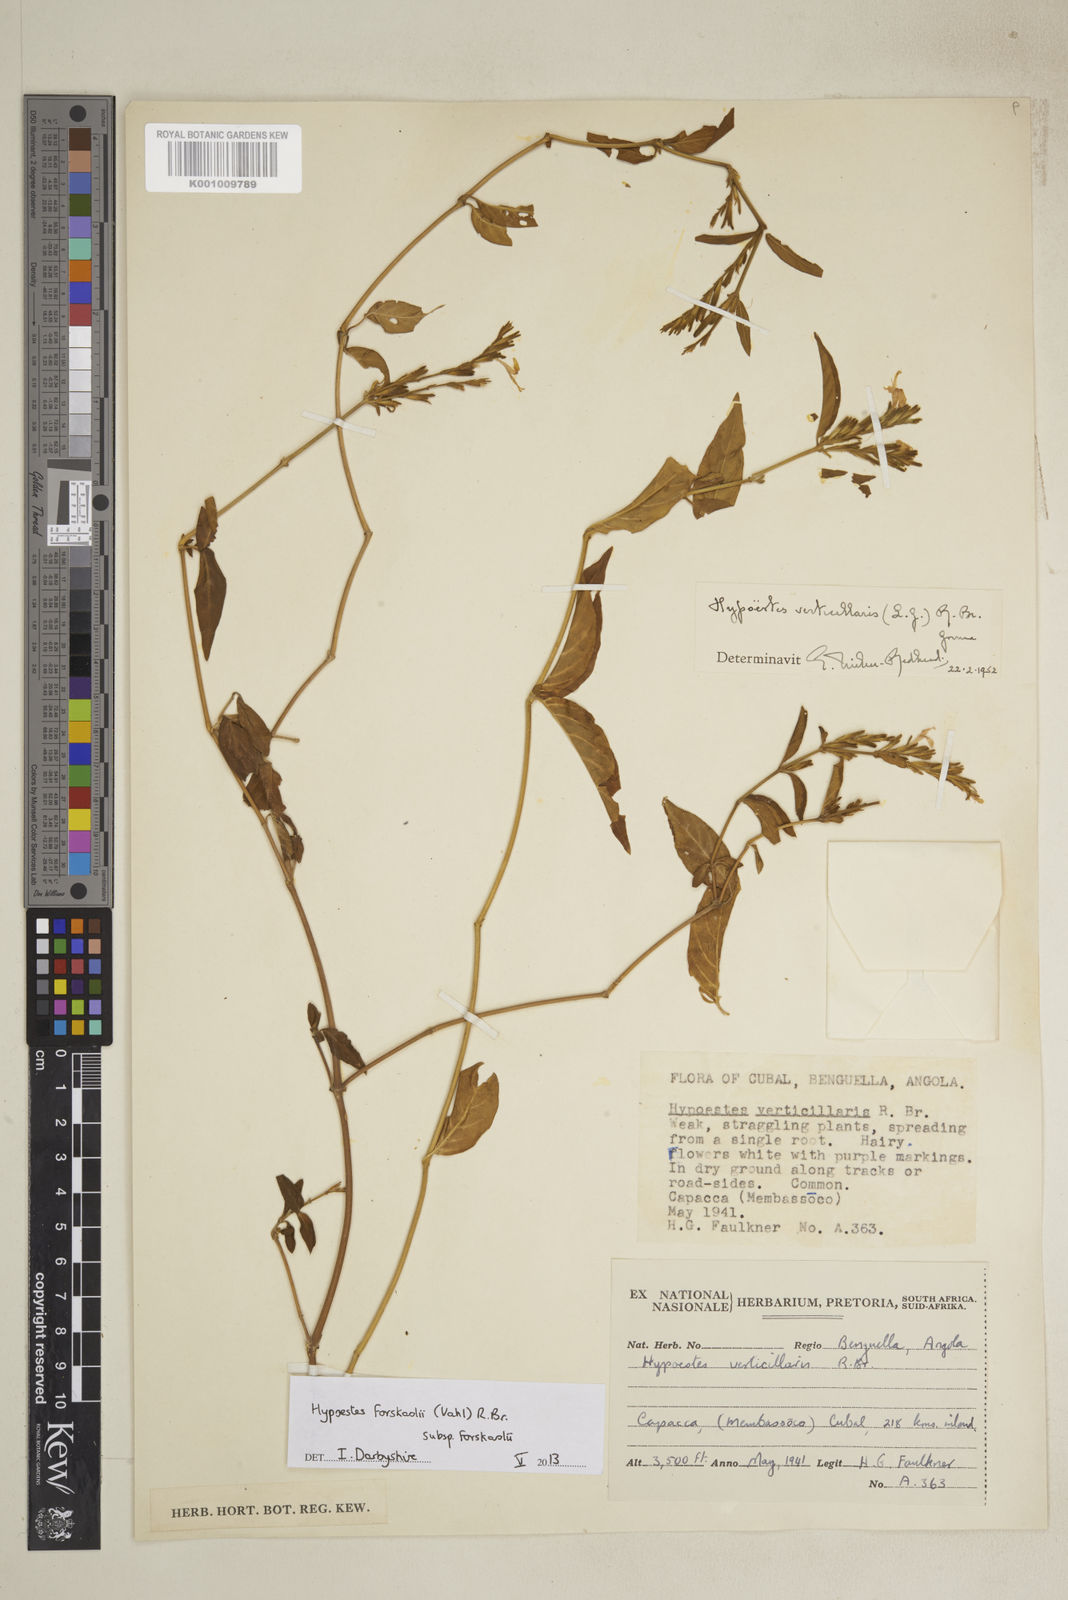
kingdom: Plantae
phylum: Tracheophyta
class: Magnoliopsida
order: Lamiales
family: Acanthaceae
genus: Hypoestes
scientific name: Hypoestes forskaolii
